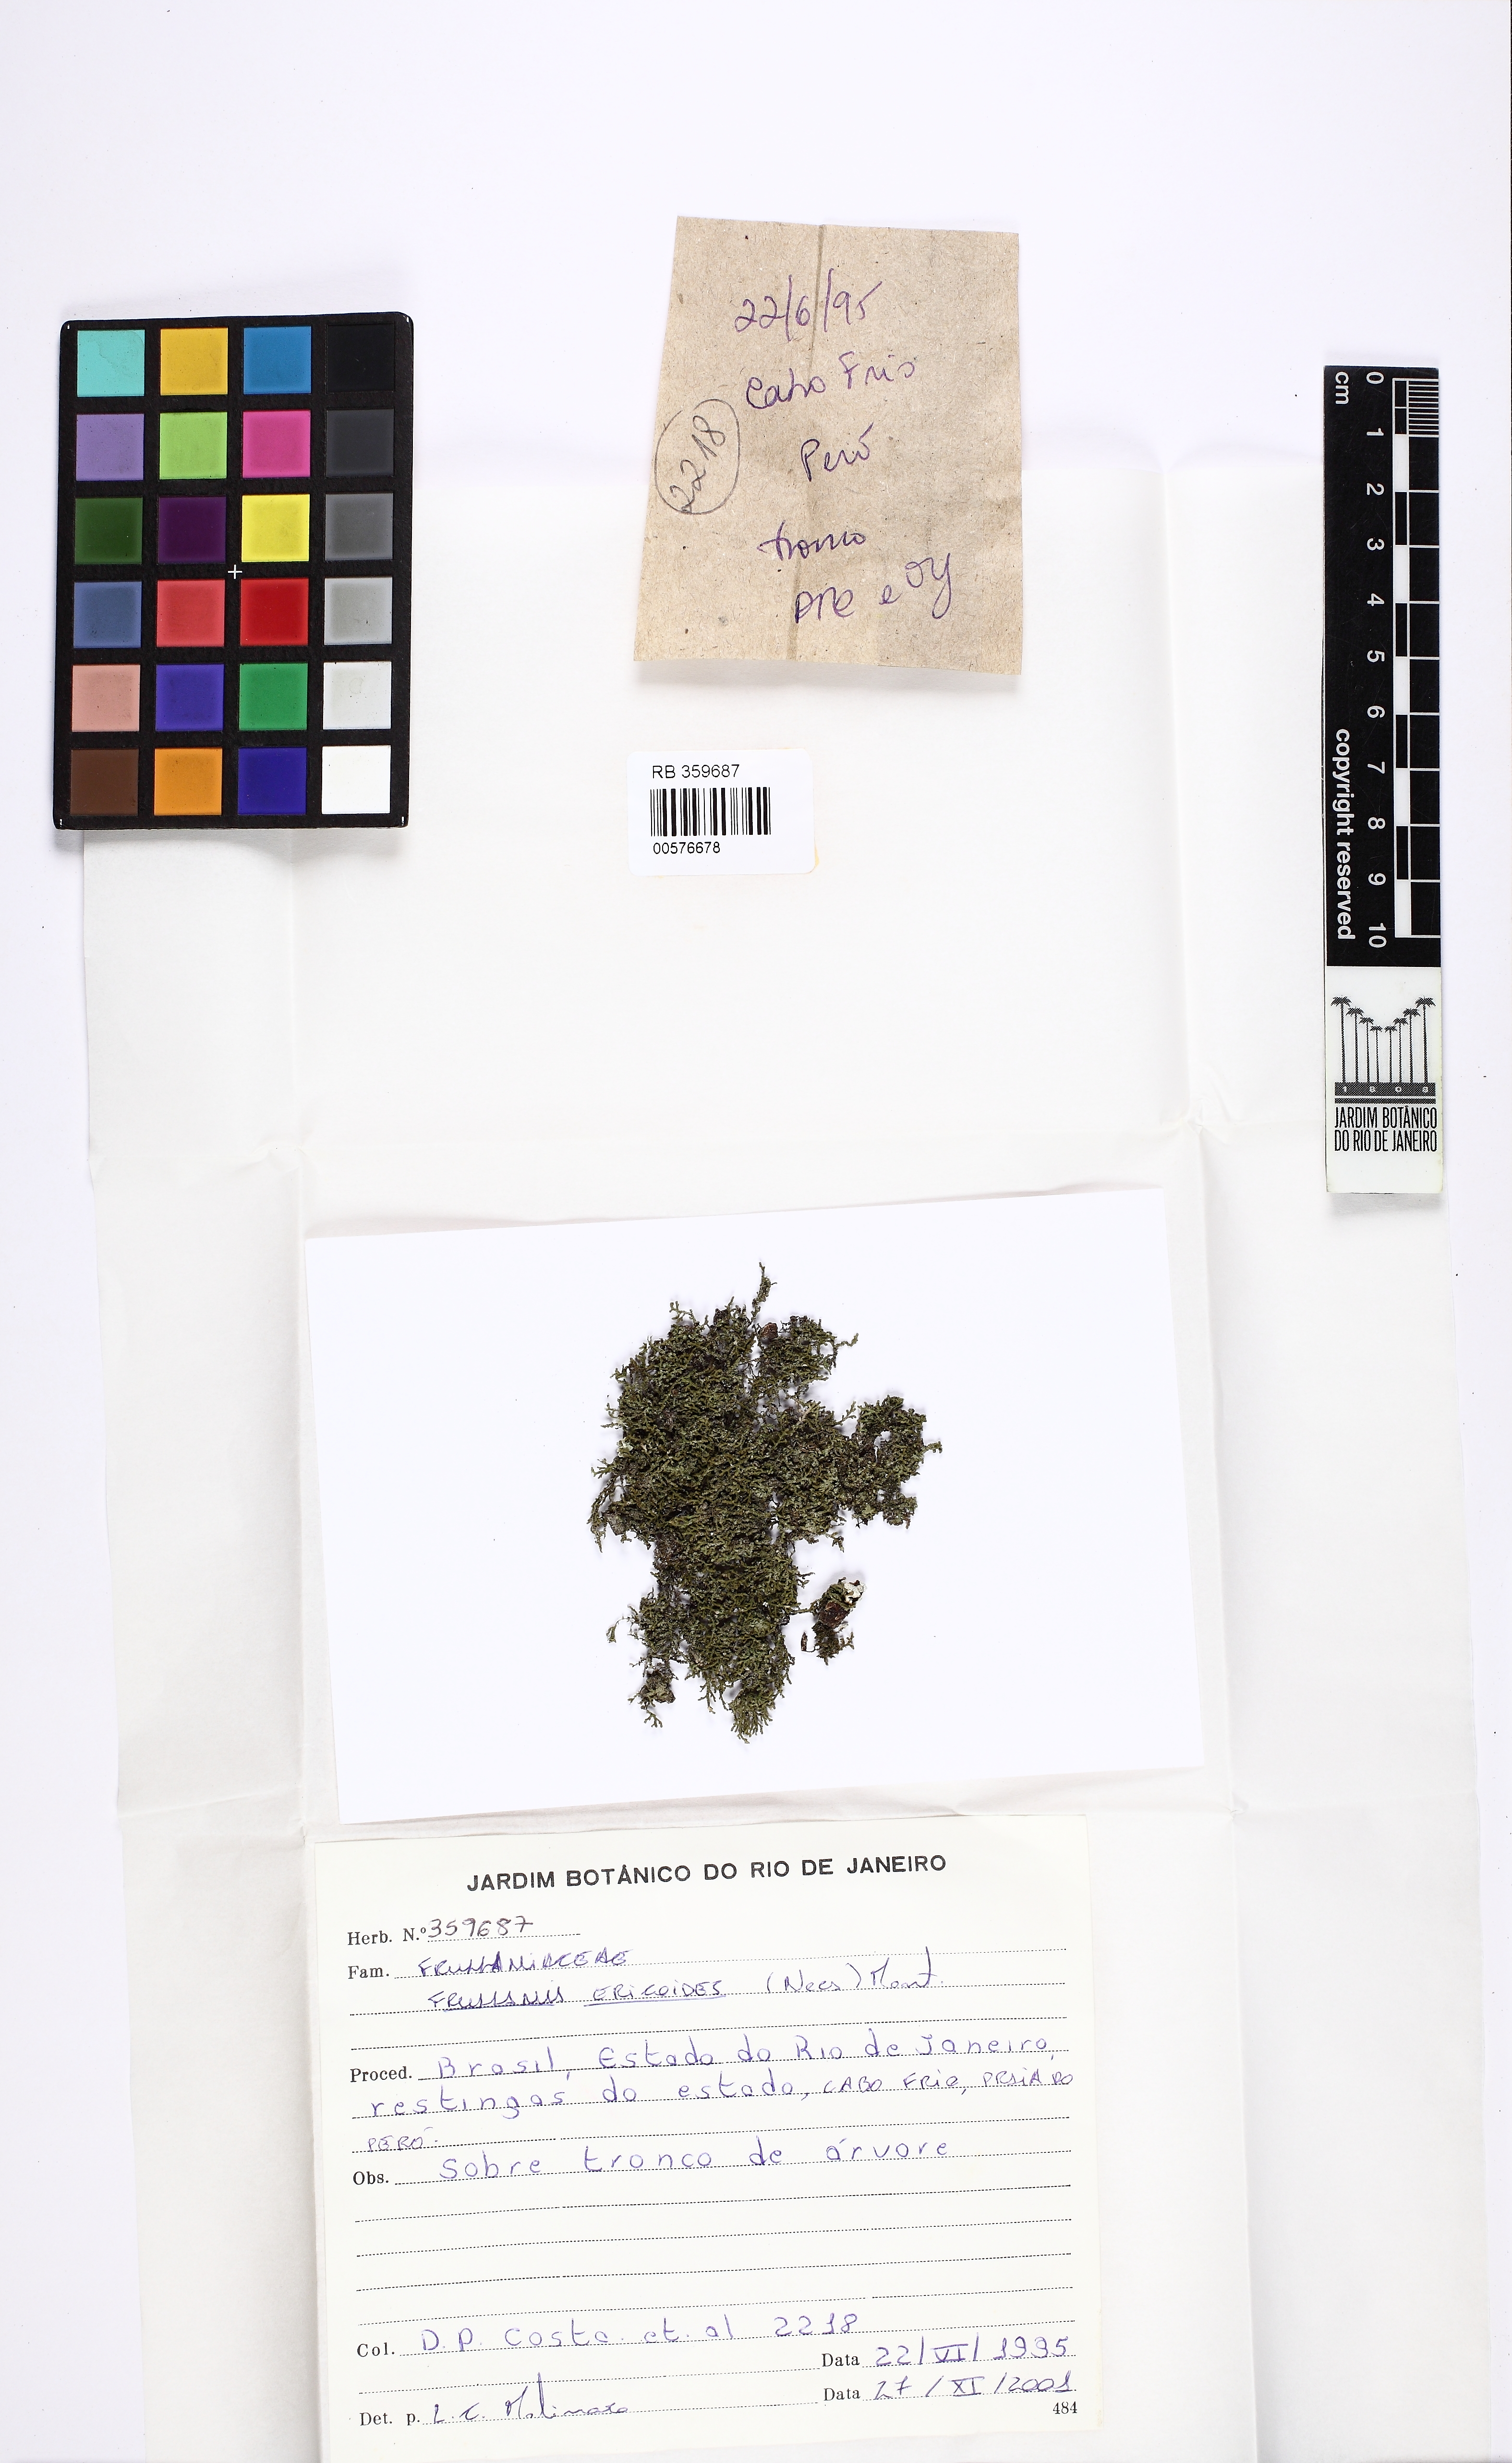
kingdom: Plantae
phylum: Marchantiophyta
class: Jungermanniopsida
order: Porellales
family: Frullaniaceae
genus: Frullania
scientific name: Frullania ericoides
